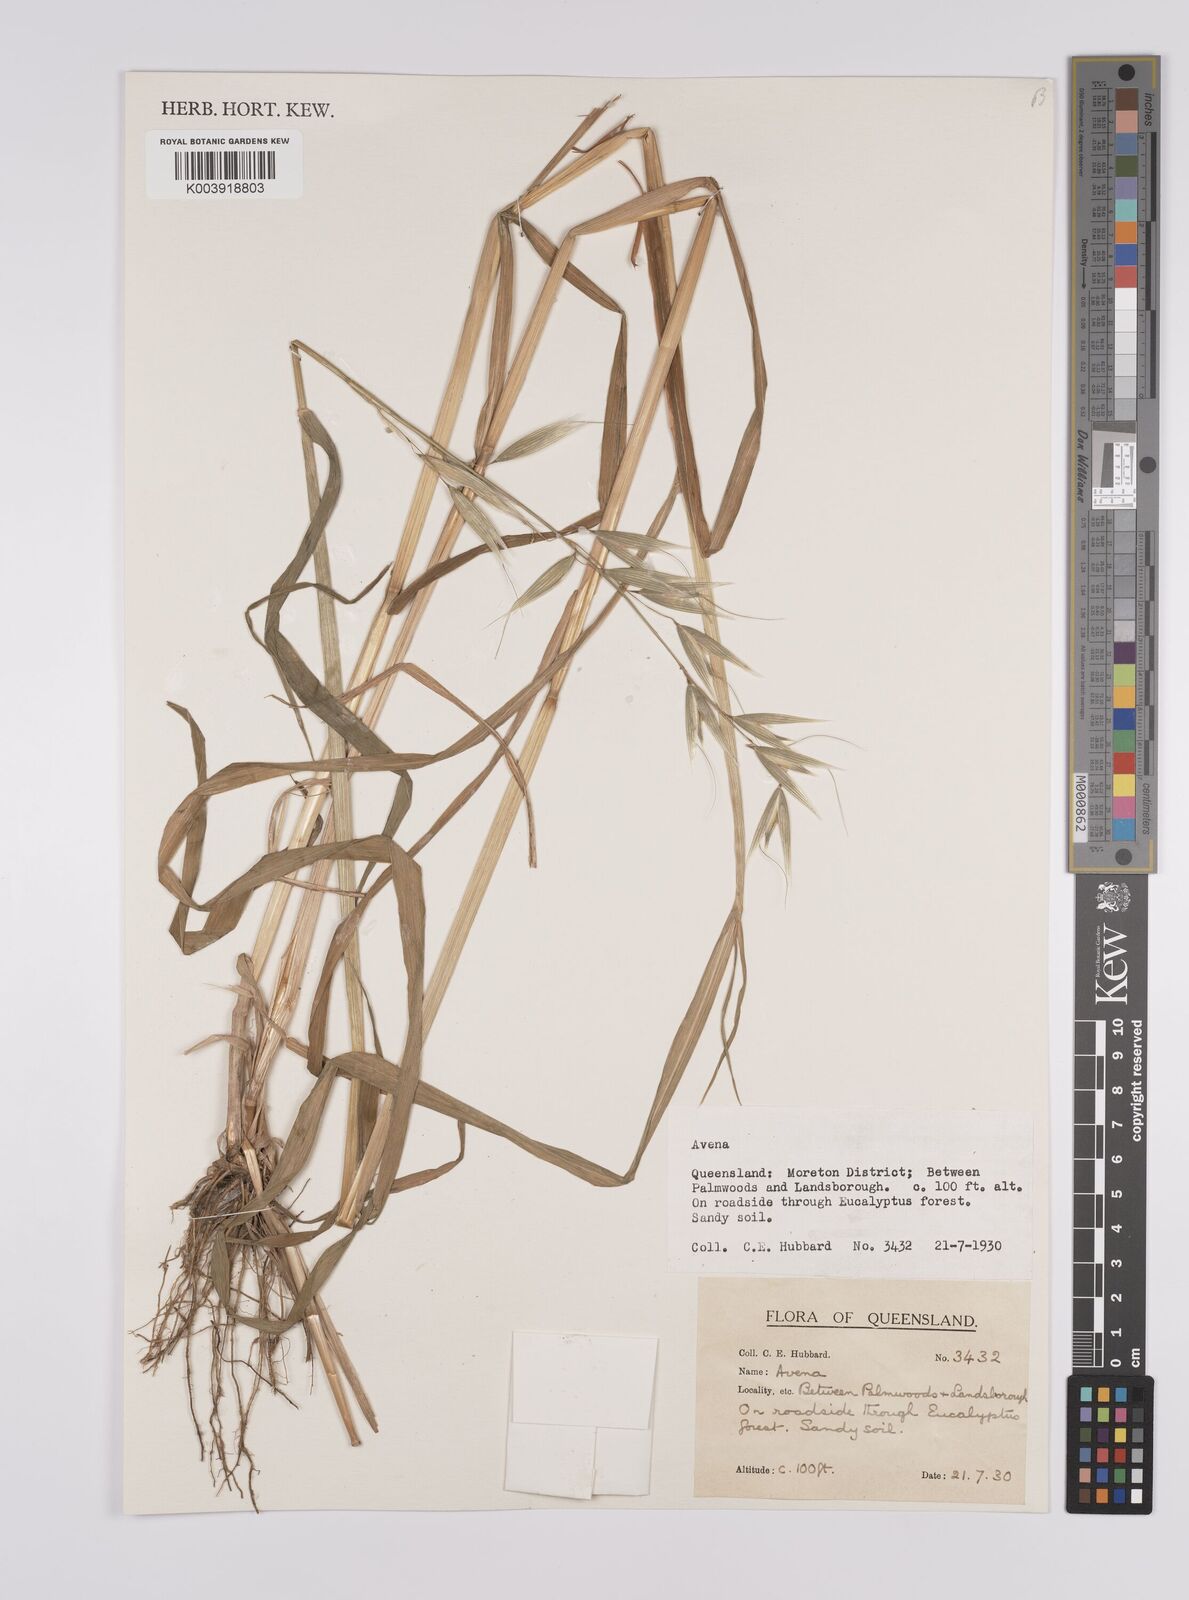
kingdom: Plantae
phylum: Tracheophyta
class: Liliopsida
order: Poales
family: Poaceae
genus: Avena
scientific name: Avena
